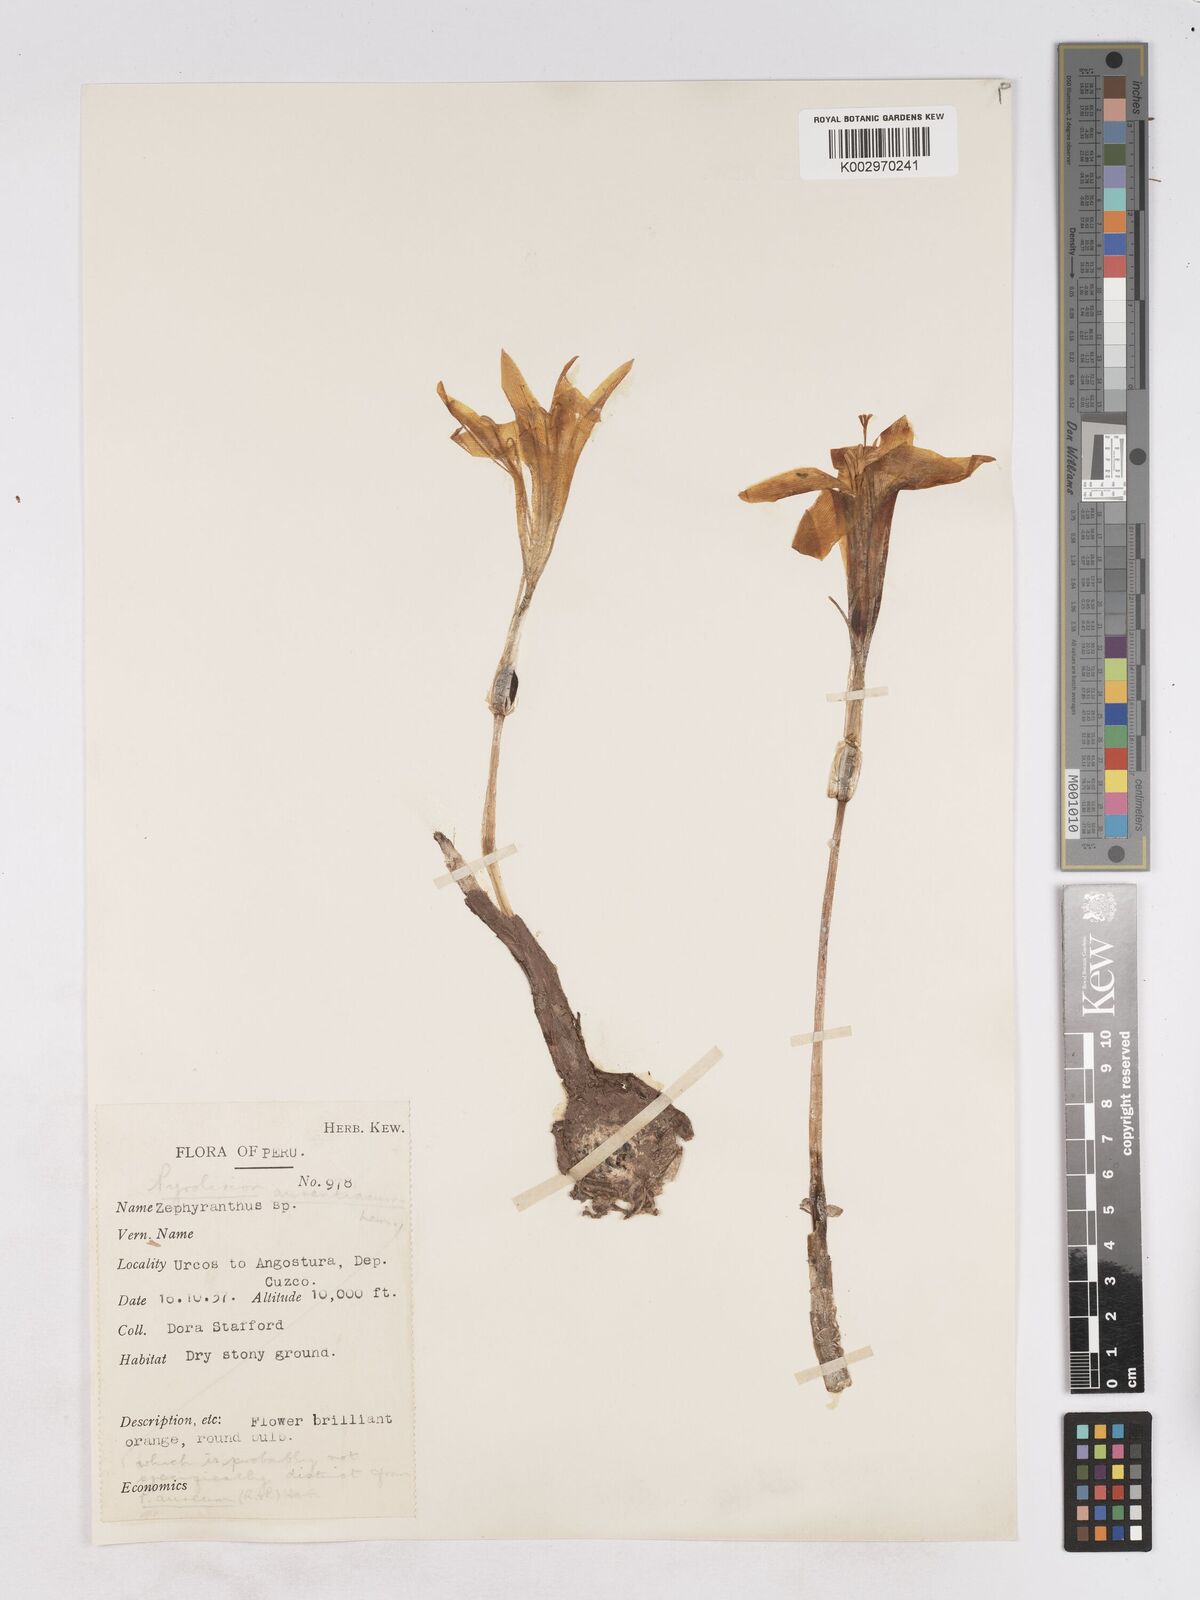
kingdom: Plantae
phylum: Tracheophyta
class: Liliopsida
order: Asparagales
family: Amaryllidaceae
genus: Pyrolirion
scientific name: Pyrolirion arvense
